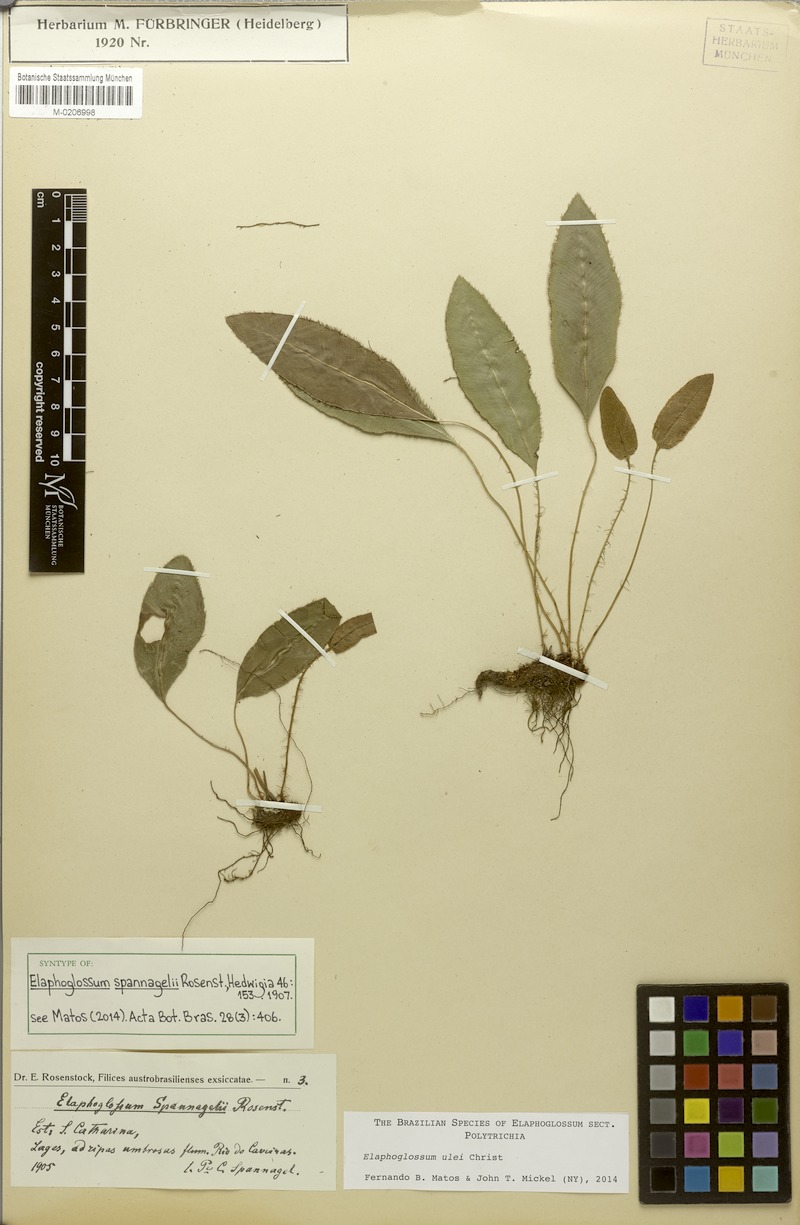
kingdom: Plantae
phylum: Tracheophyta
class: Polypodiopsida
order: Polypodiales
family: Dryopteridaceae
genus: Elaphoglossum
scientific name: Elaphoglossum ulei
